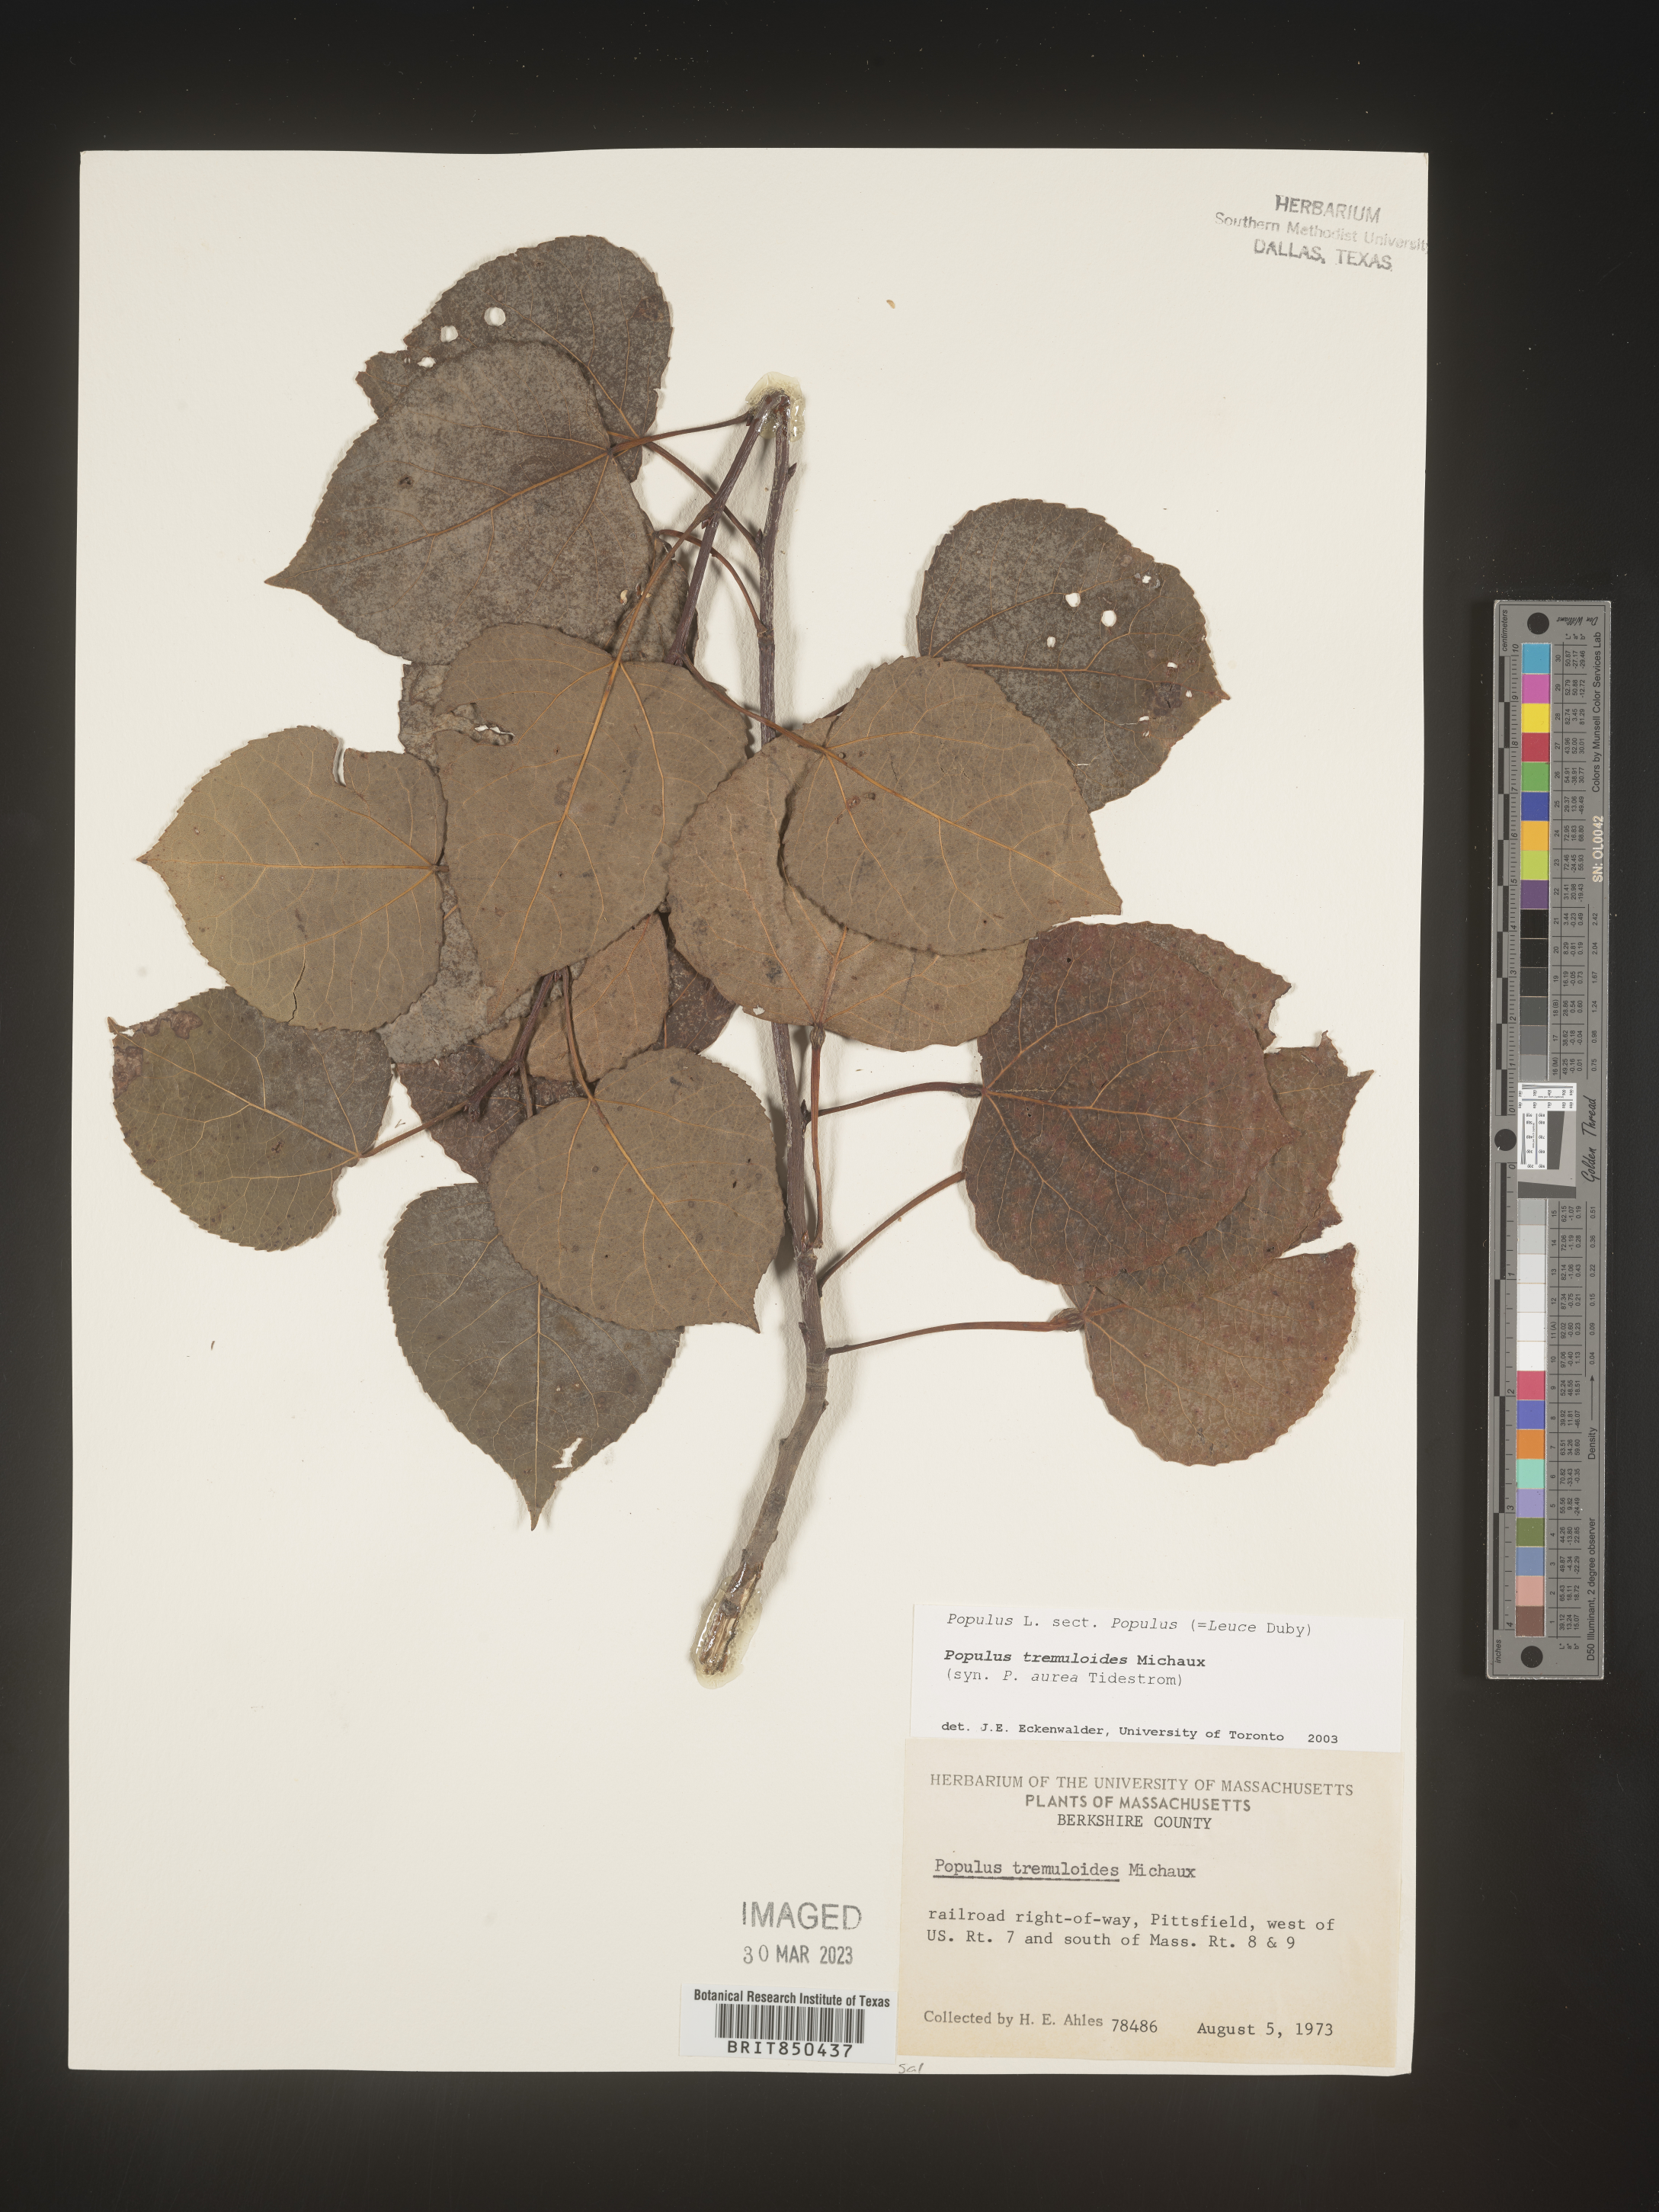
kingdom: Plantae
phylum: Tracheophyta
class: Magnoliopsida
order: Malpighiales
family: Salicaceae
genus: Populus
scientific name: Populus tremuloides
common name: Quaking aspen
